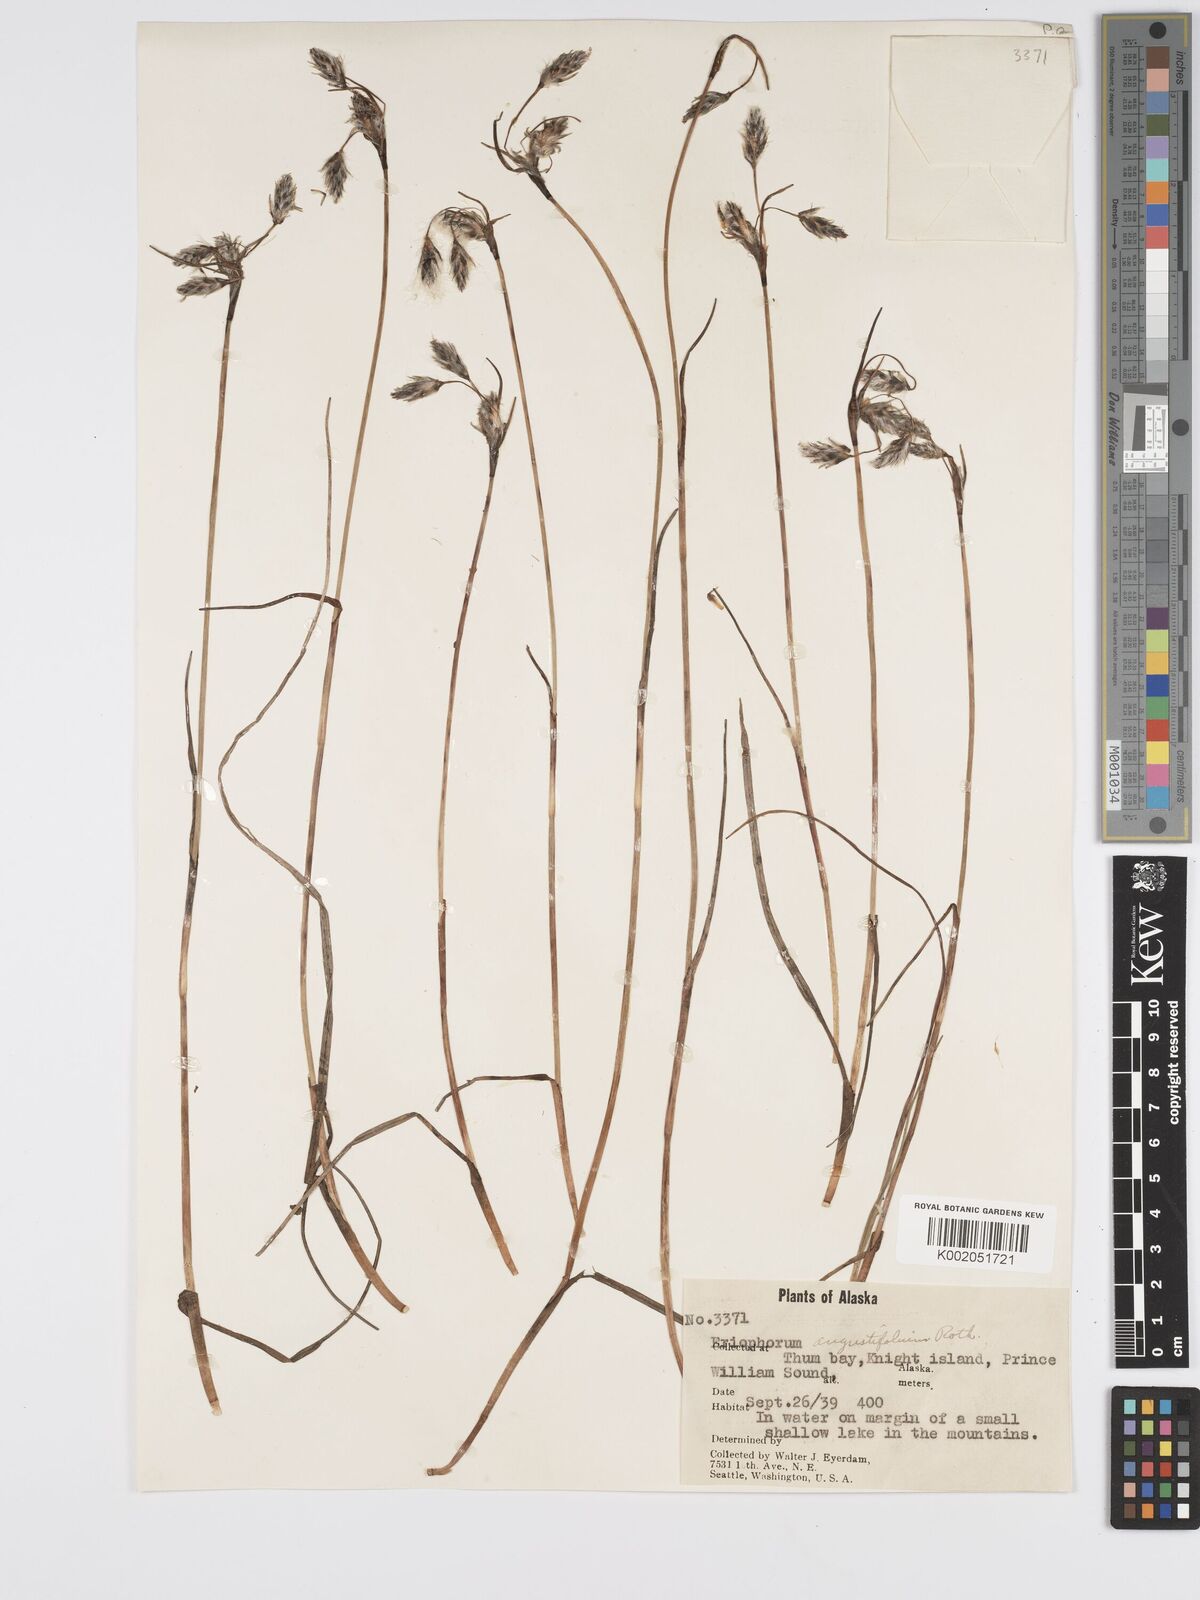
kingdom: Plantae
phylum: Tracheophyta
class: Liliopsida
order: Poales
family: Cyperaceae
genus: Eriophorum
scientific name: Eriophorum angustifolium
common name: Common cottongrass
